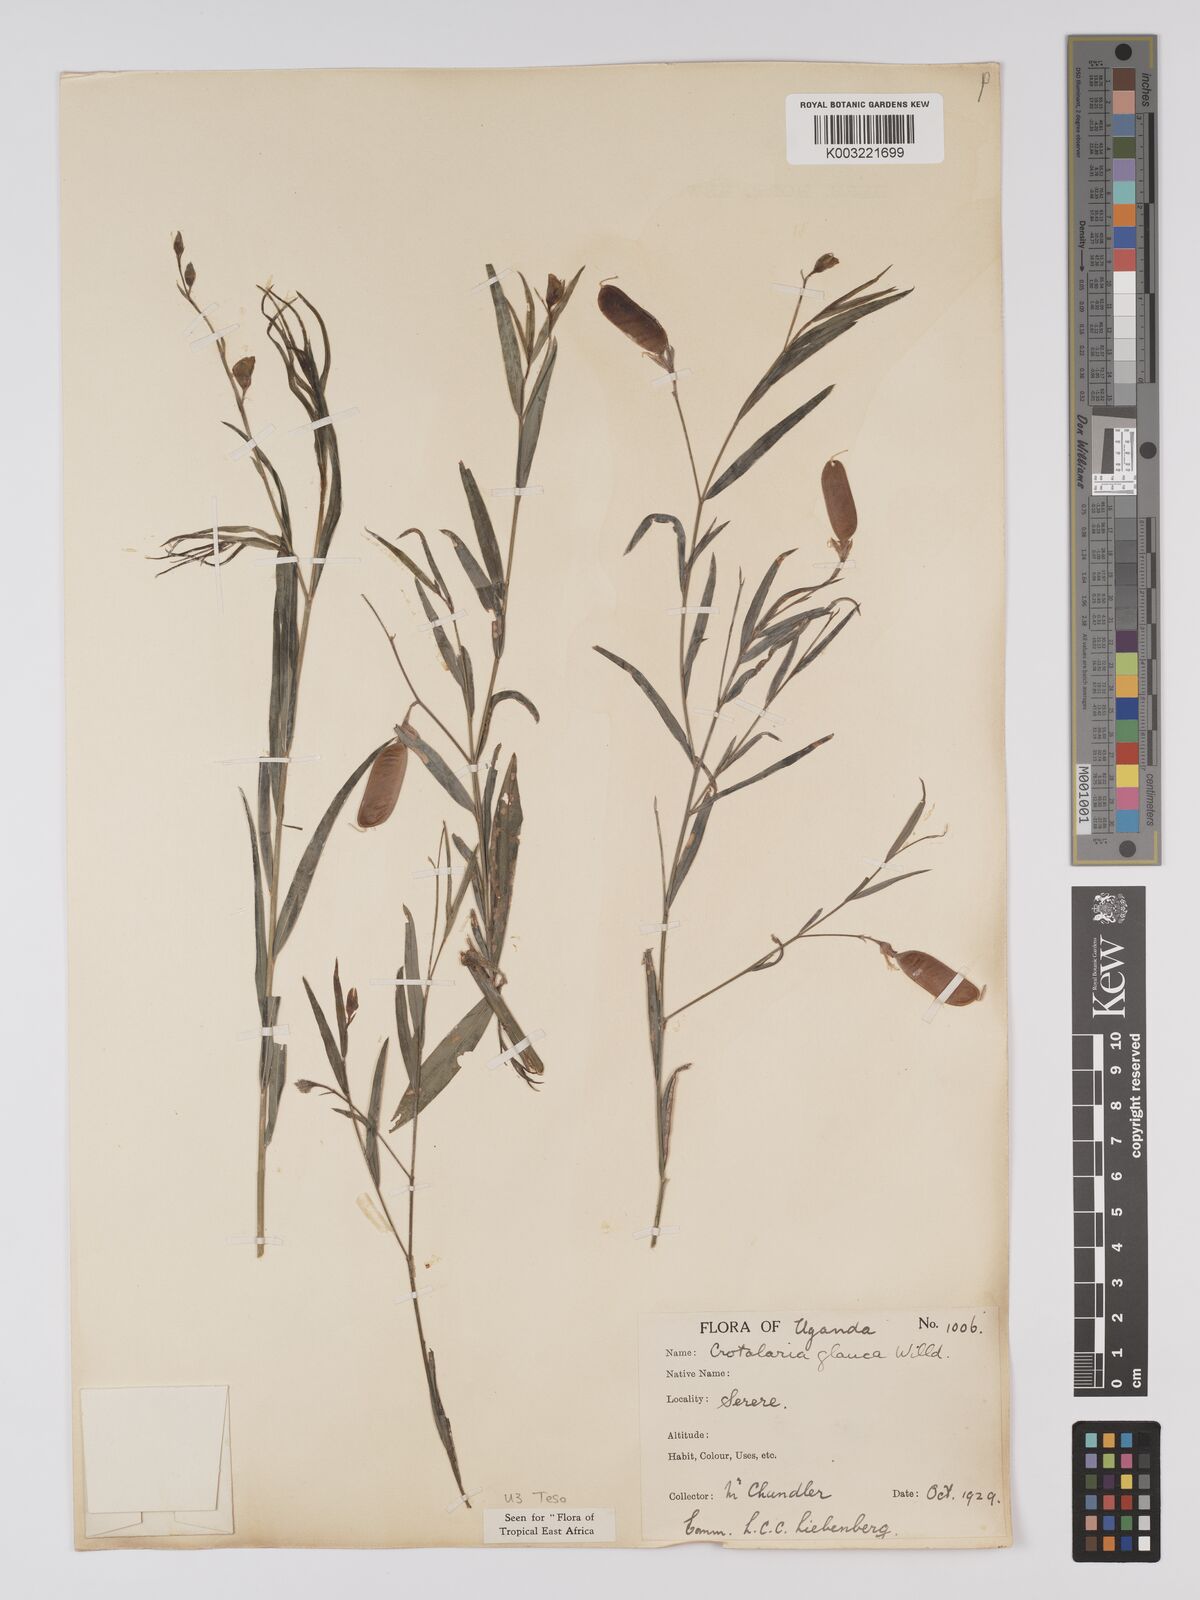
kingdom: Plantae
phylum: Tracheophyta
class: Magnoliopsida
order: Fabales
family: Fabaceae
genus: Crotalaria
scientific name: Crotalaria glauca
